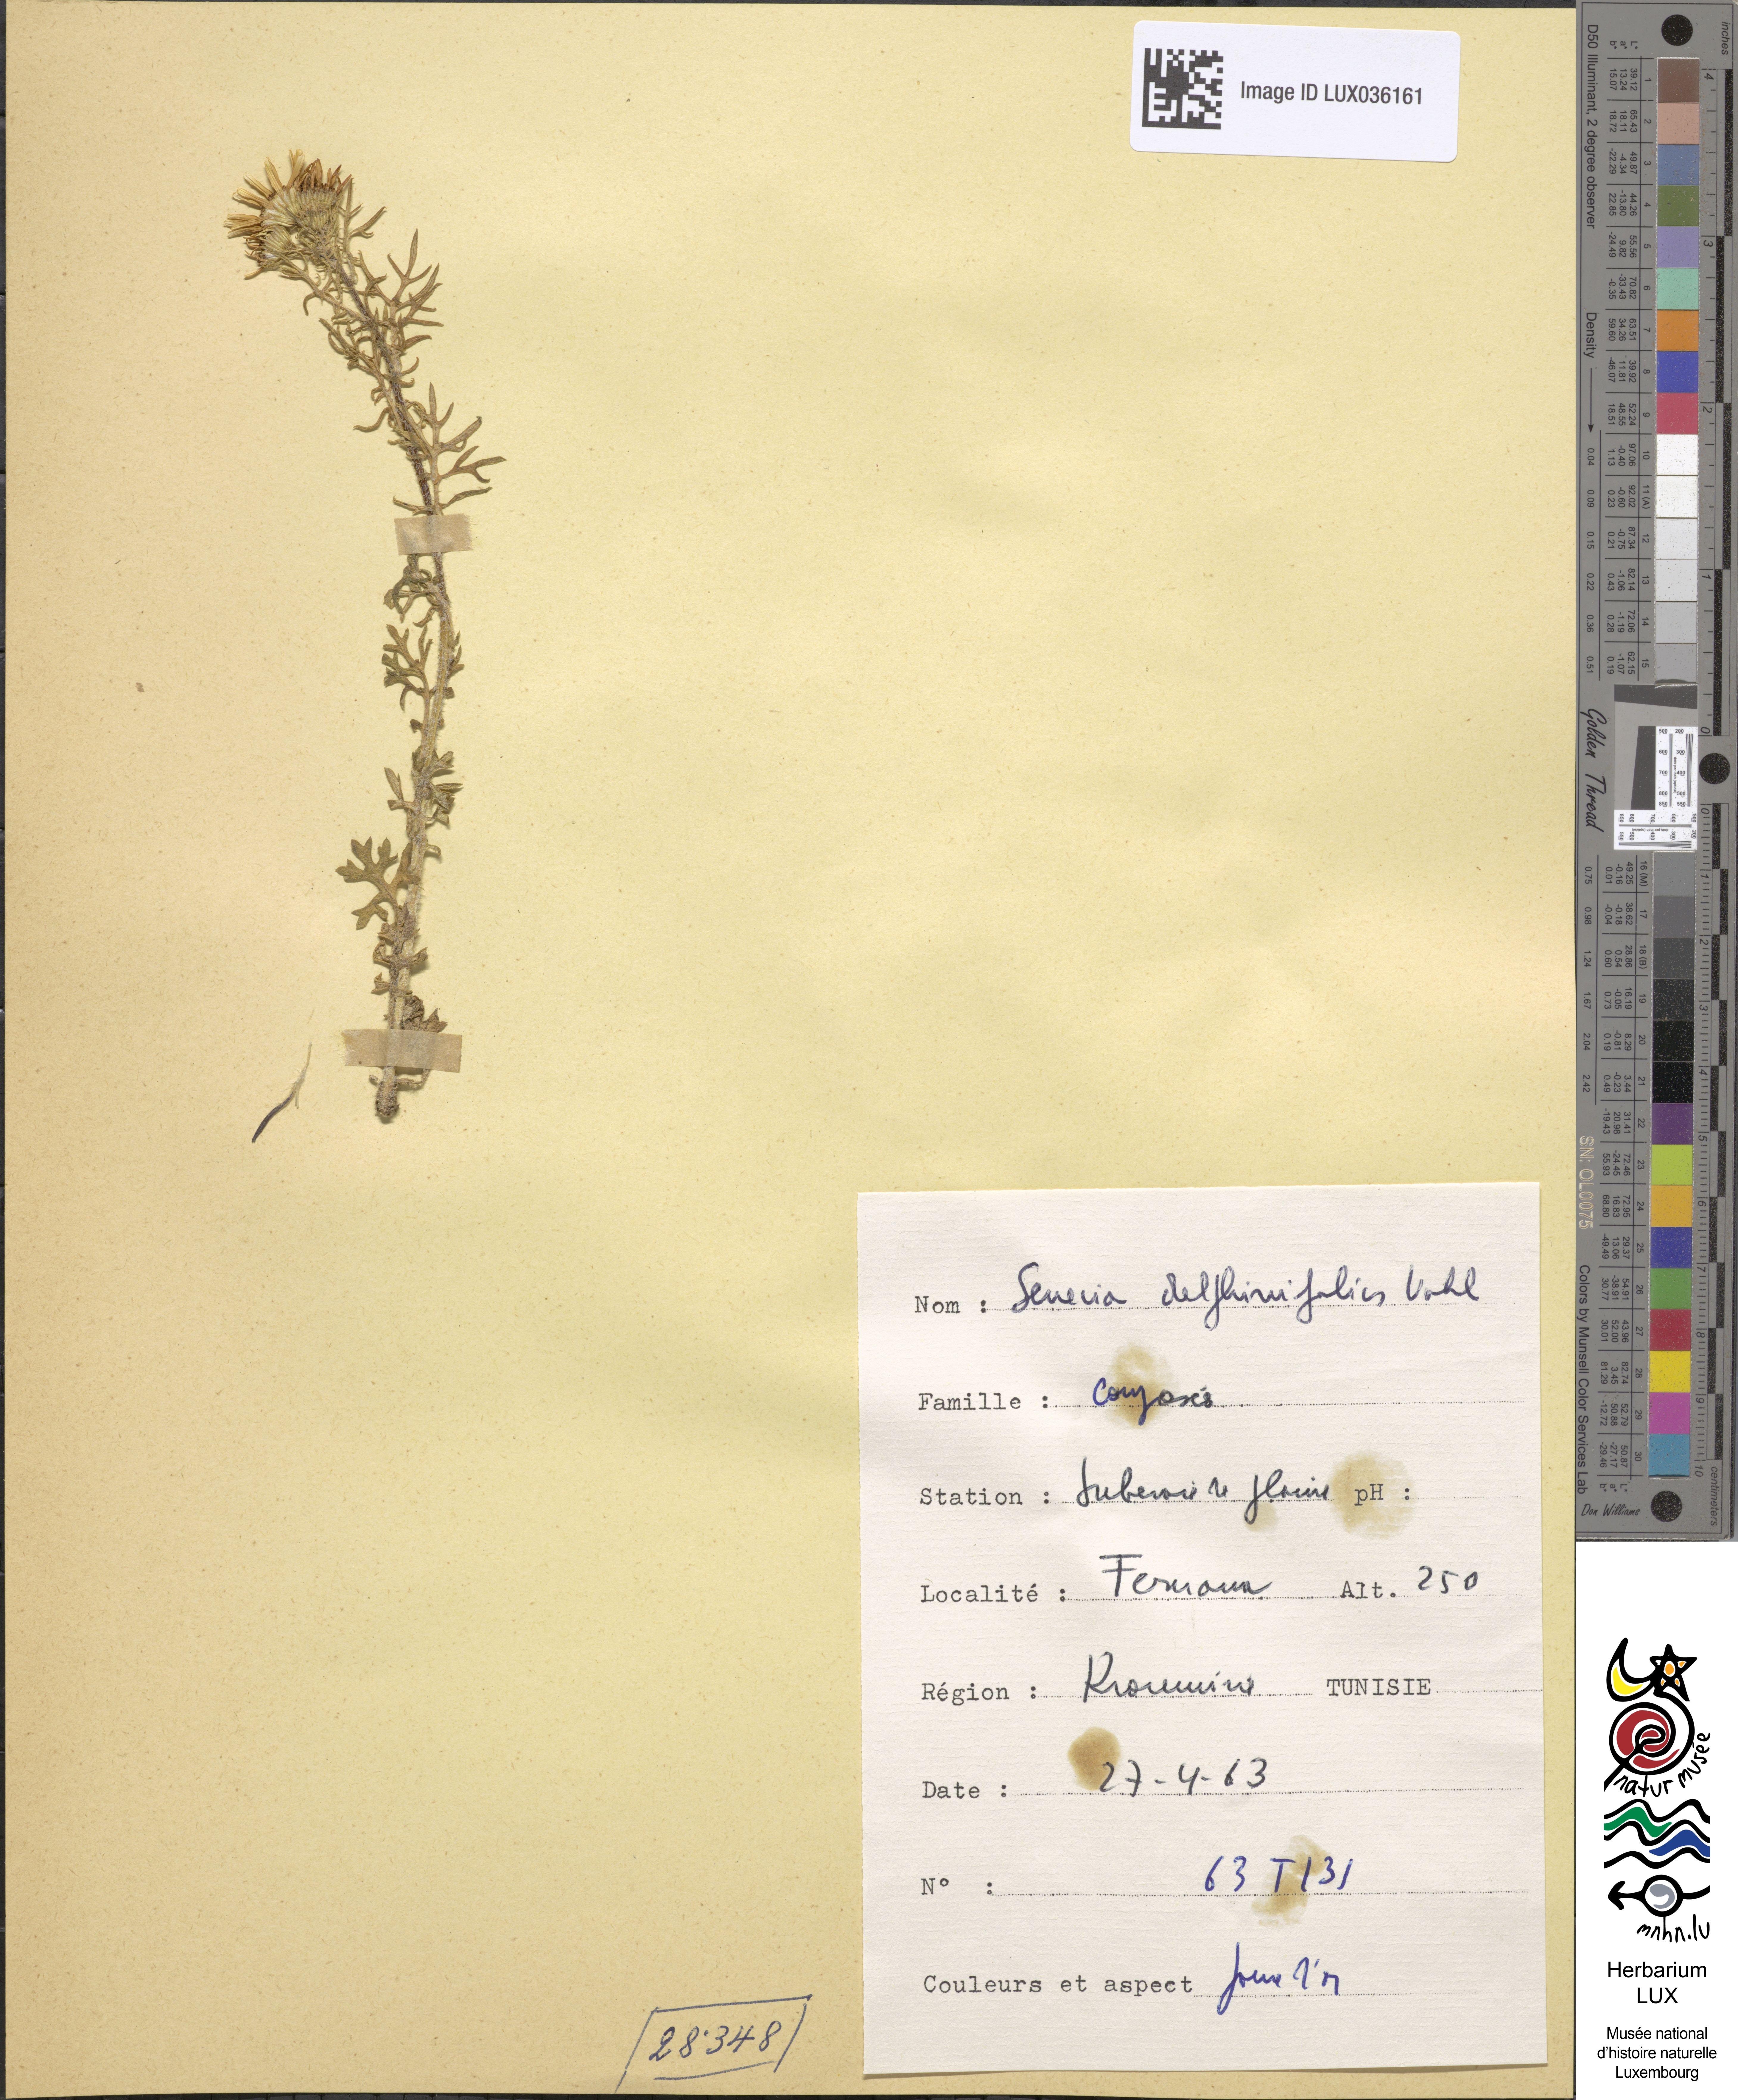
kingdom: Plantae
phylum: Tracheophyta
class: Magnoliopsida
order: Asterales
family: Asteraceae
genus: Jacobaea
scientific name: Jacobaea delphiniifolia
